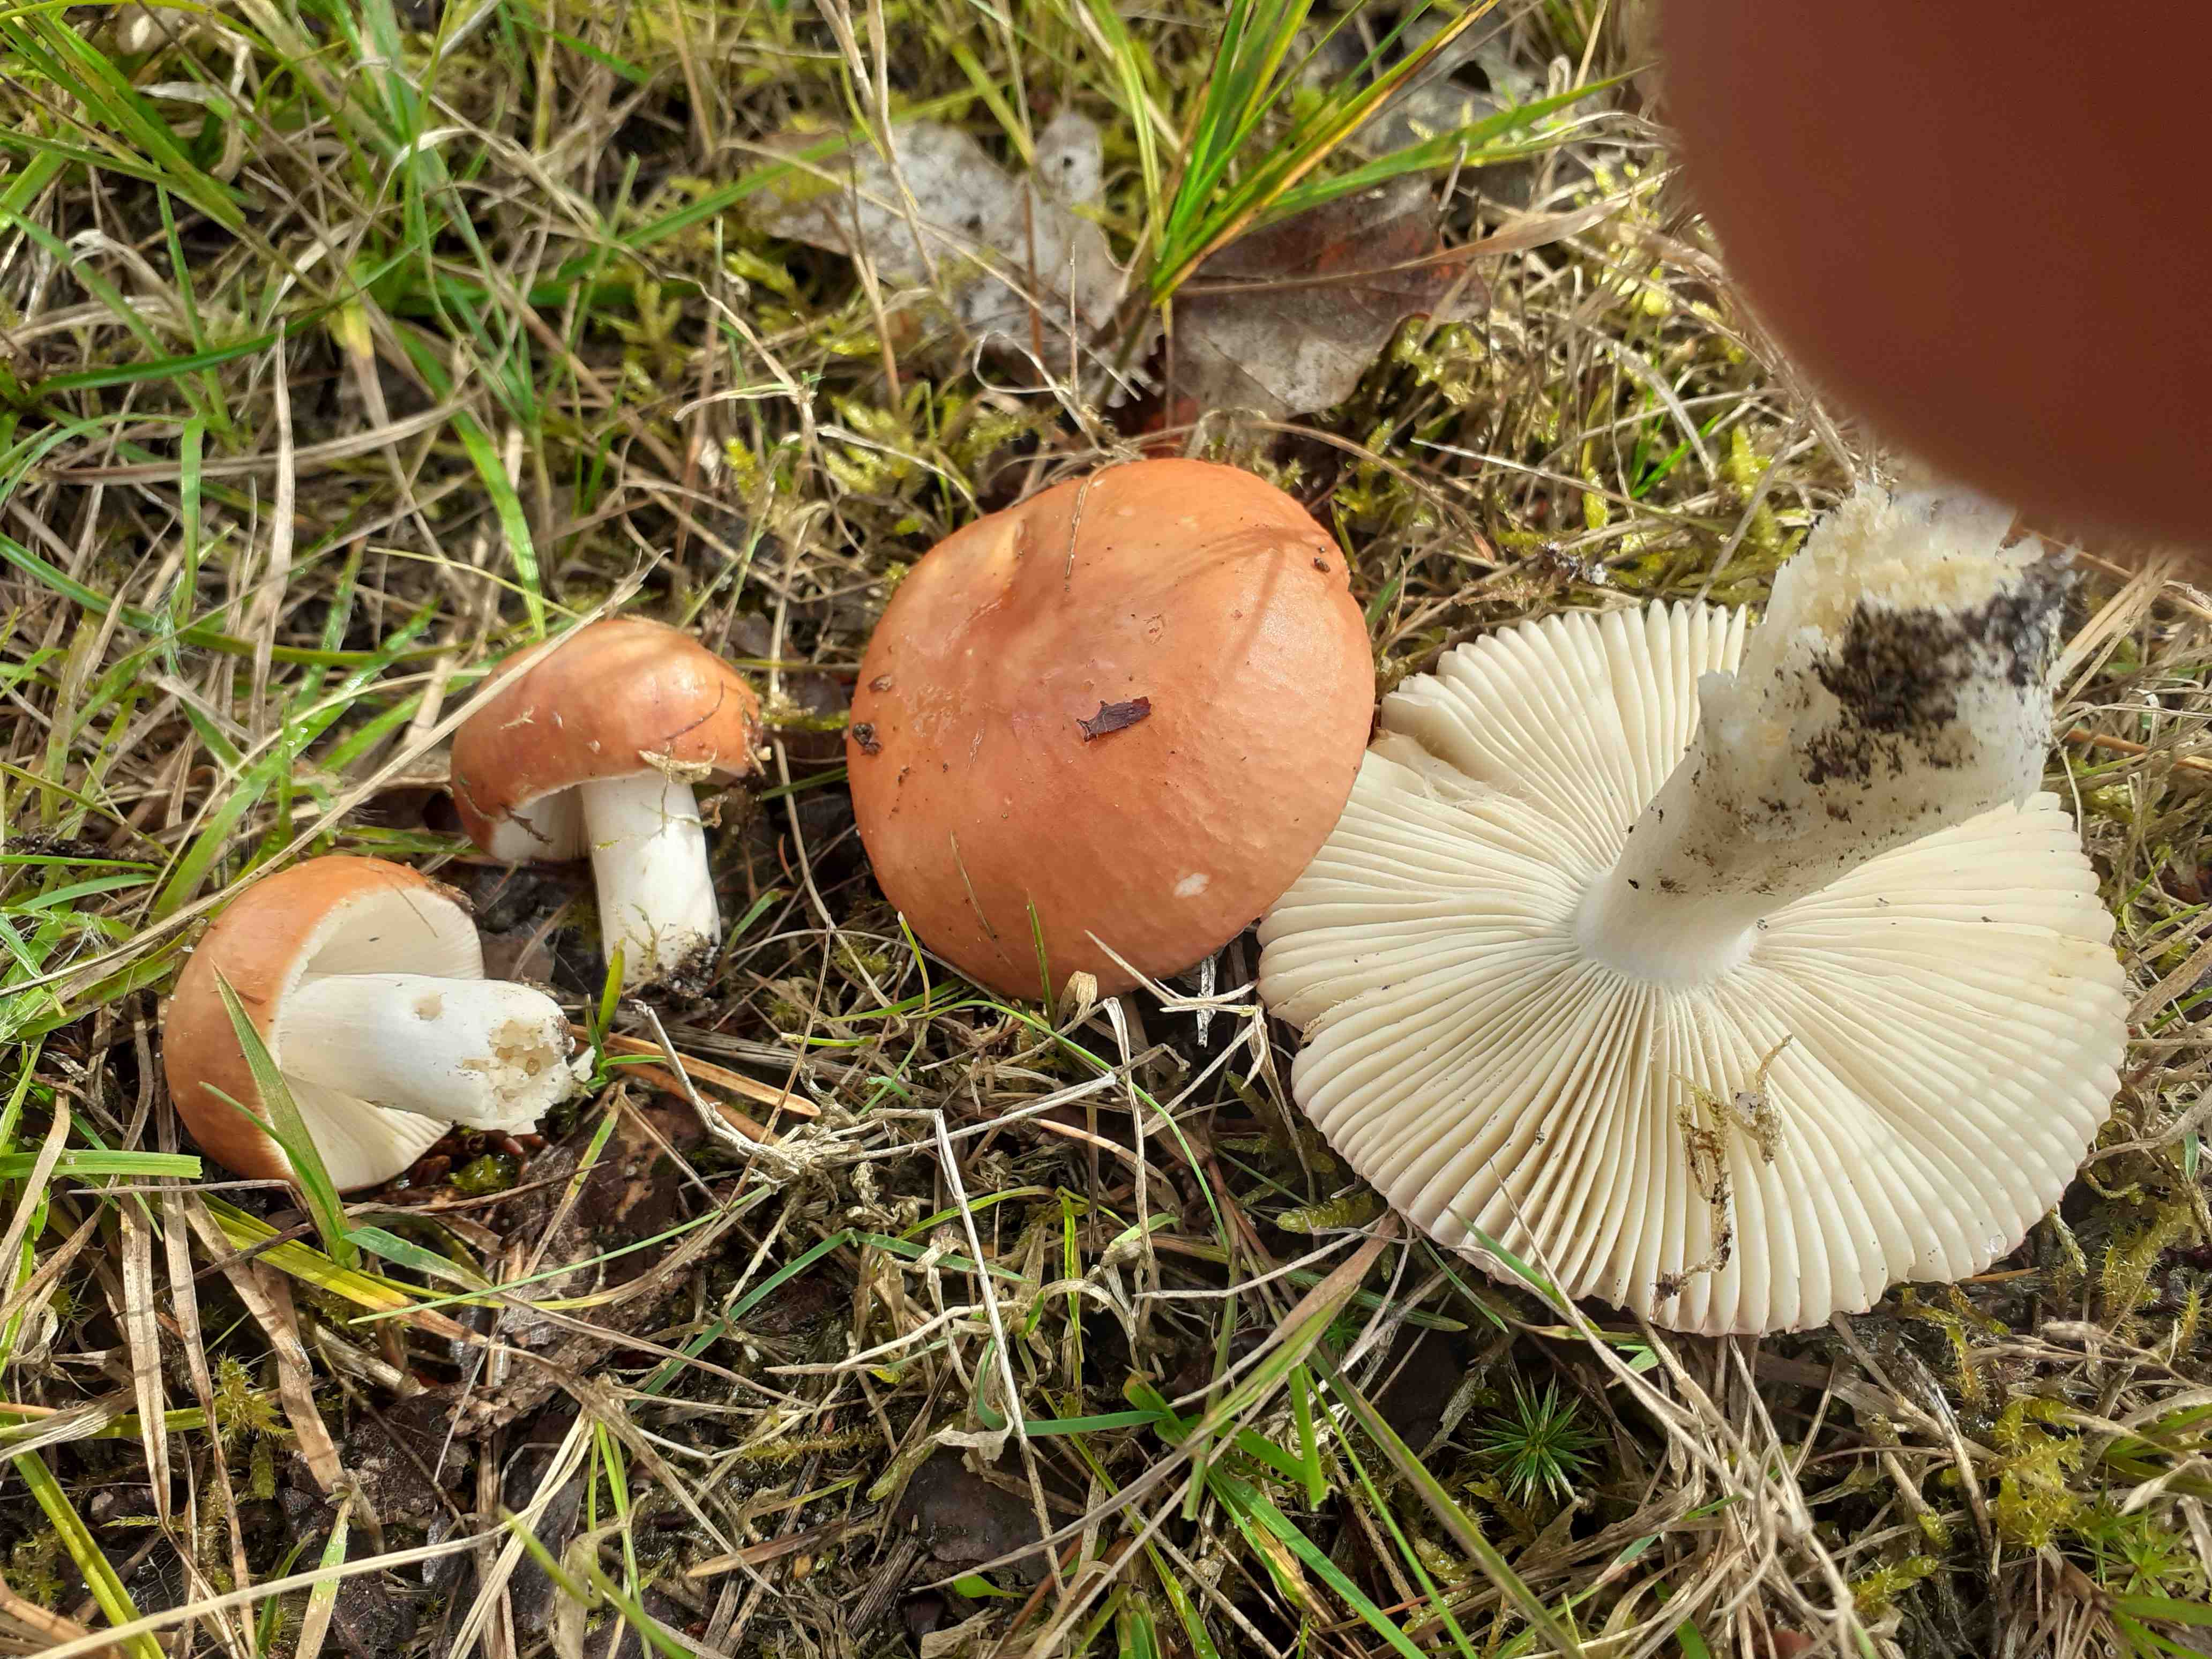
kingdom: Fungi
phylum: Basidiomycota
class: Agaricomycetes
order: Russulales
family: Russulaceae
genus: Russula
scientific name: Russula velenovskyi
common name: orangerød skørhat
